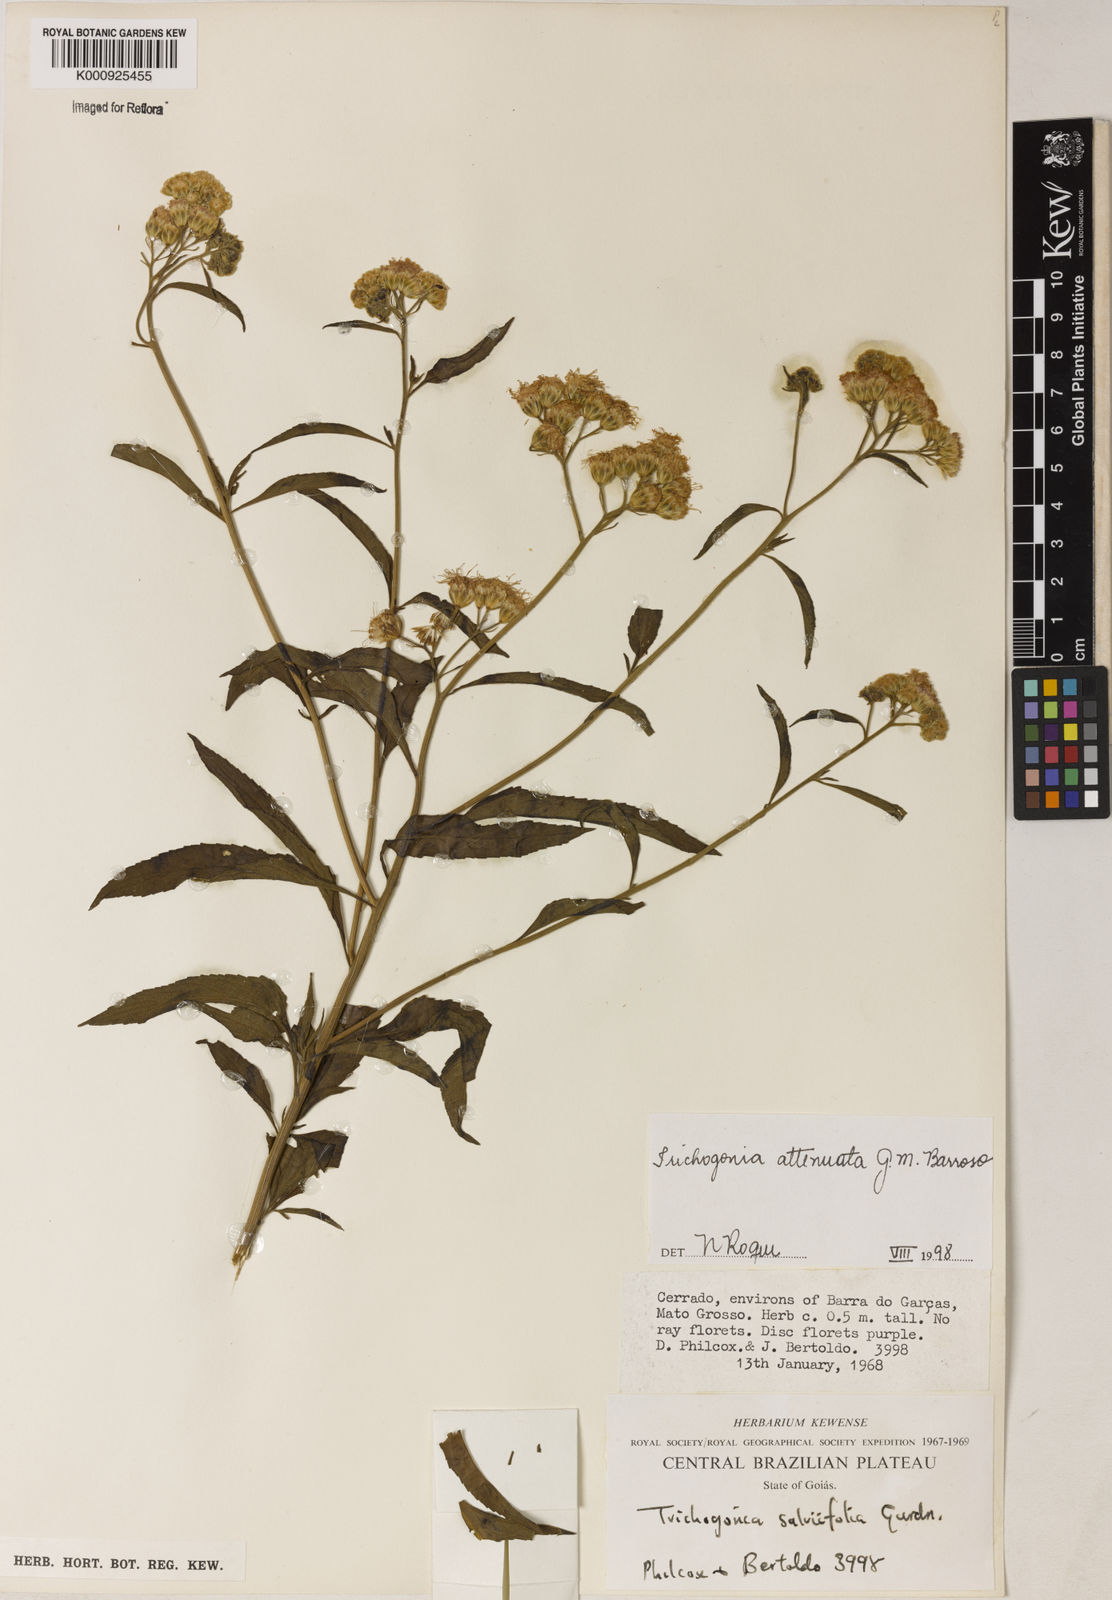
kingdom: Plantae
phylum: Tracheophyta
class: Magnoliopsida
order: Asterales
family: Asteraceae
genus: Trichogonia
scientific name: Trichogonia attenuata
